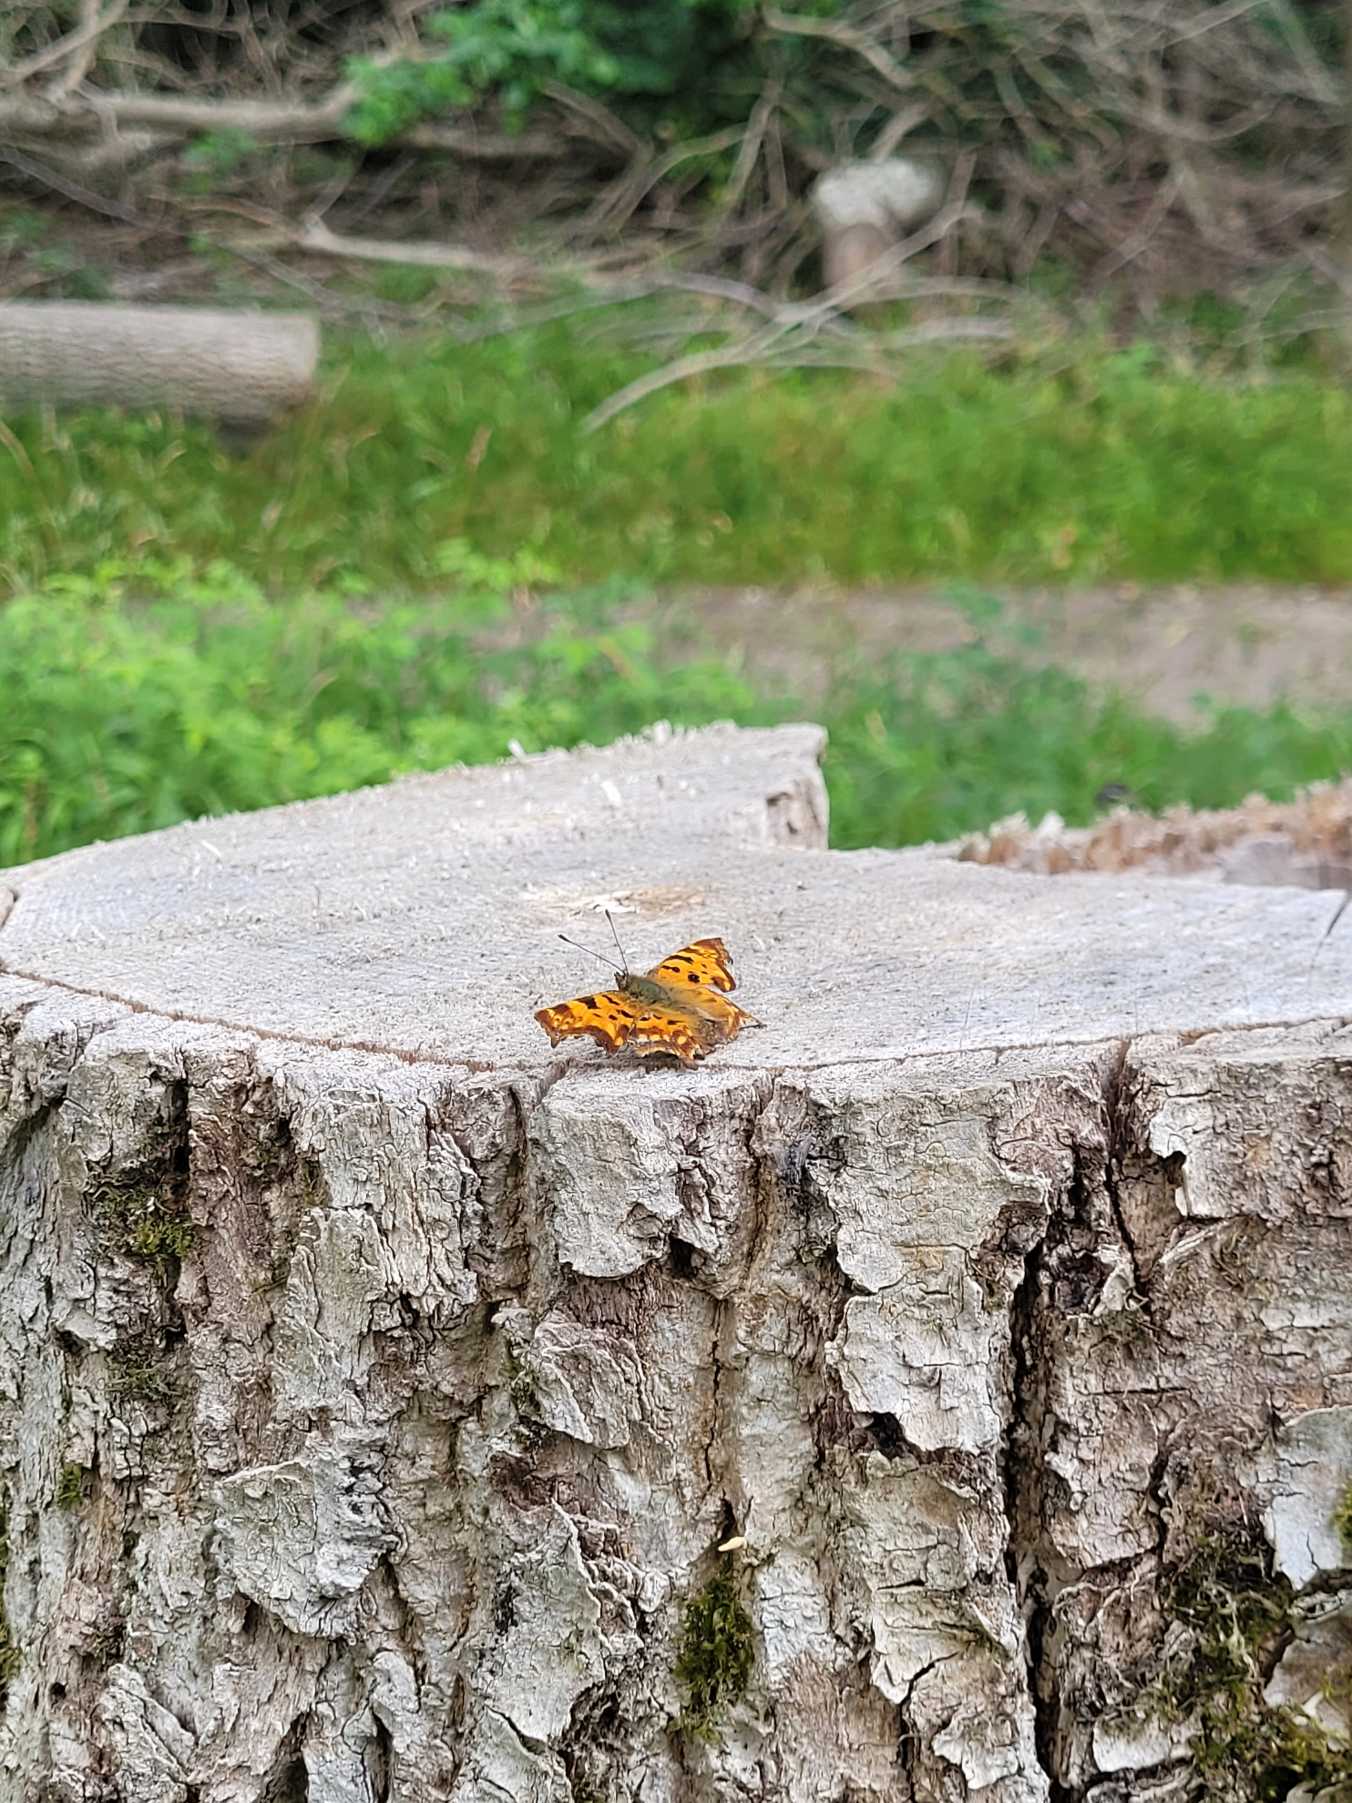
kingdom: Animalia
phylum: Arthropoda
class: Insecta
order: Lepidoptera
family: Nymphalidae
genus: Polygonia
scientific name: Polygonia c-album
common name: Det hvide C
